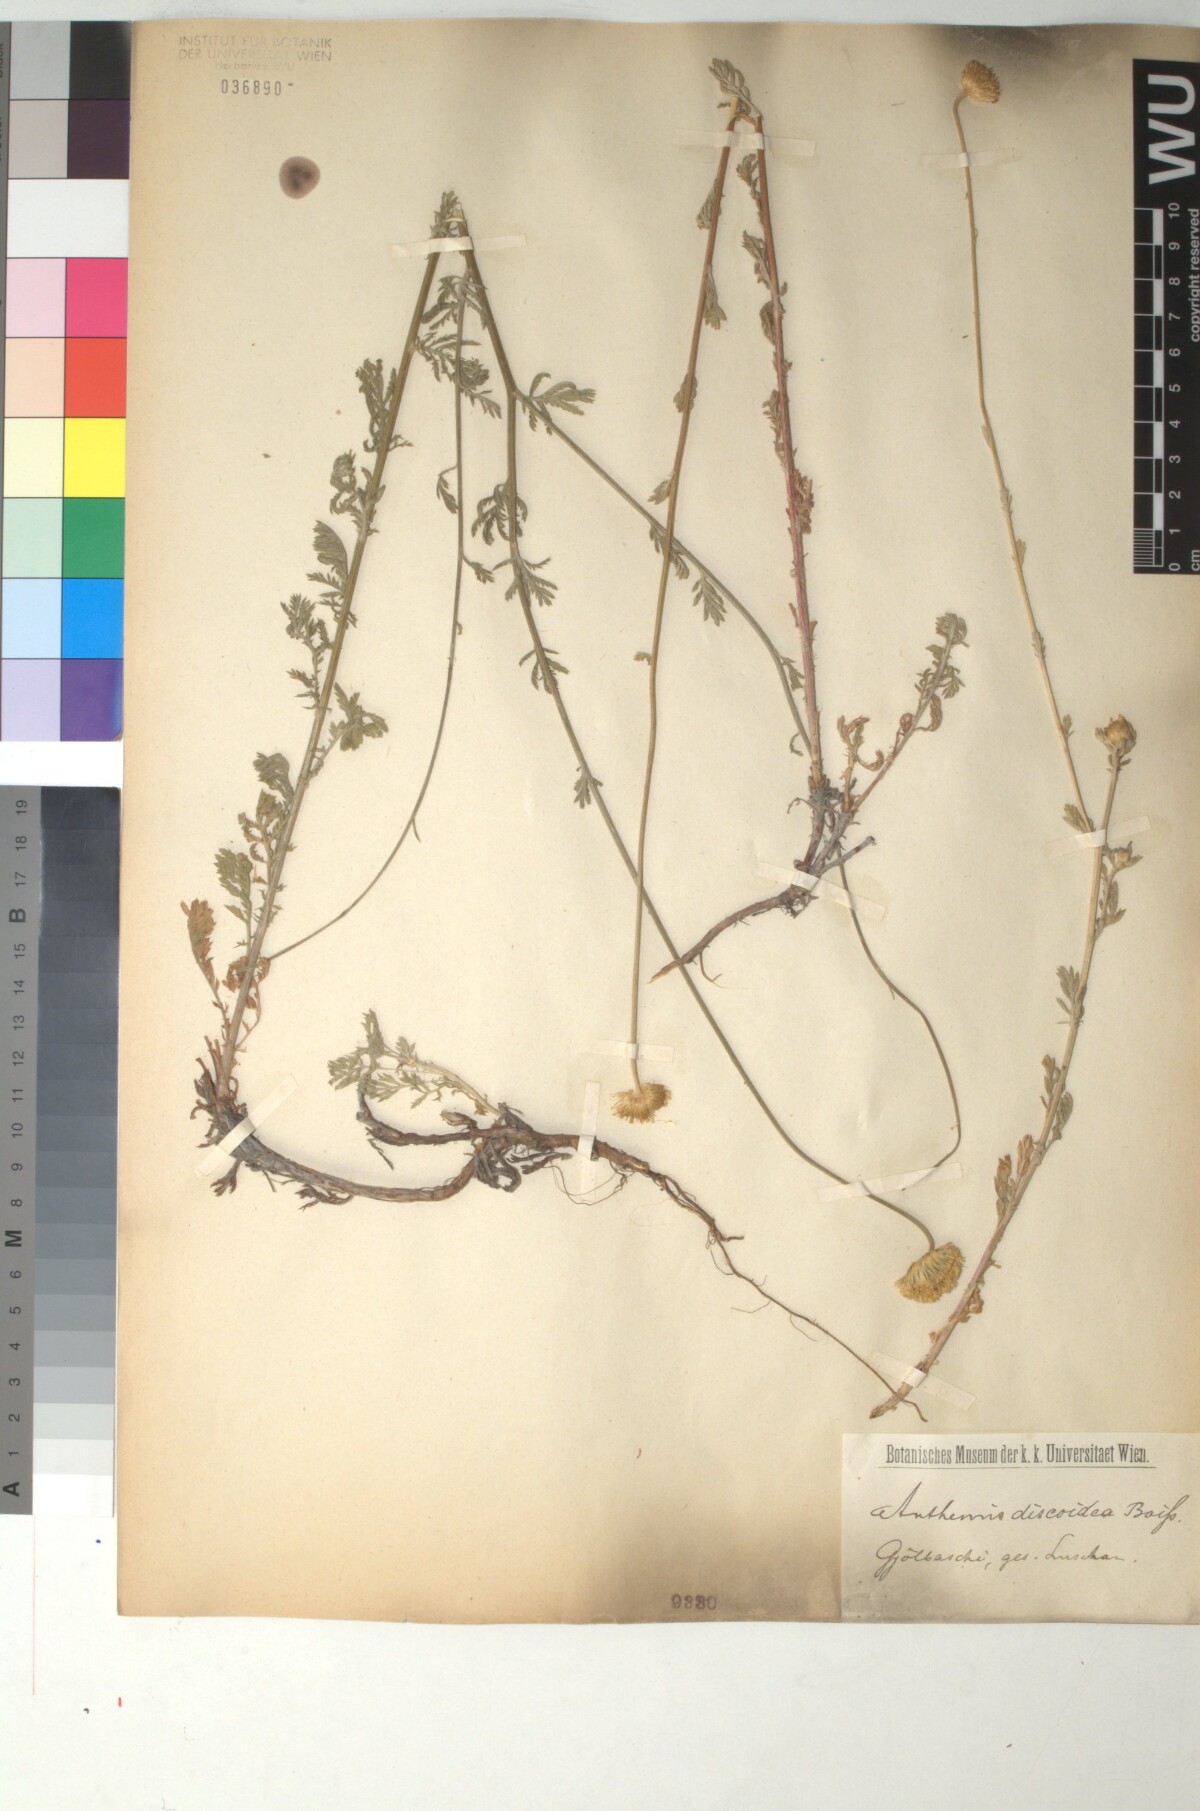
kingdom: Plantae
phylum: Tracheophyta
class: Magnoliopsida
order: Asterales
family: Asteraceae
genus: Cota
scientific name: Cota triumfetti
